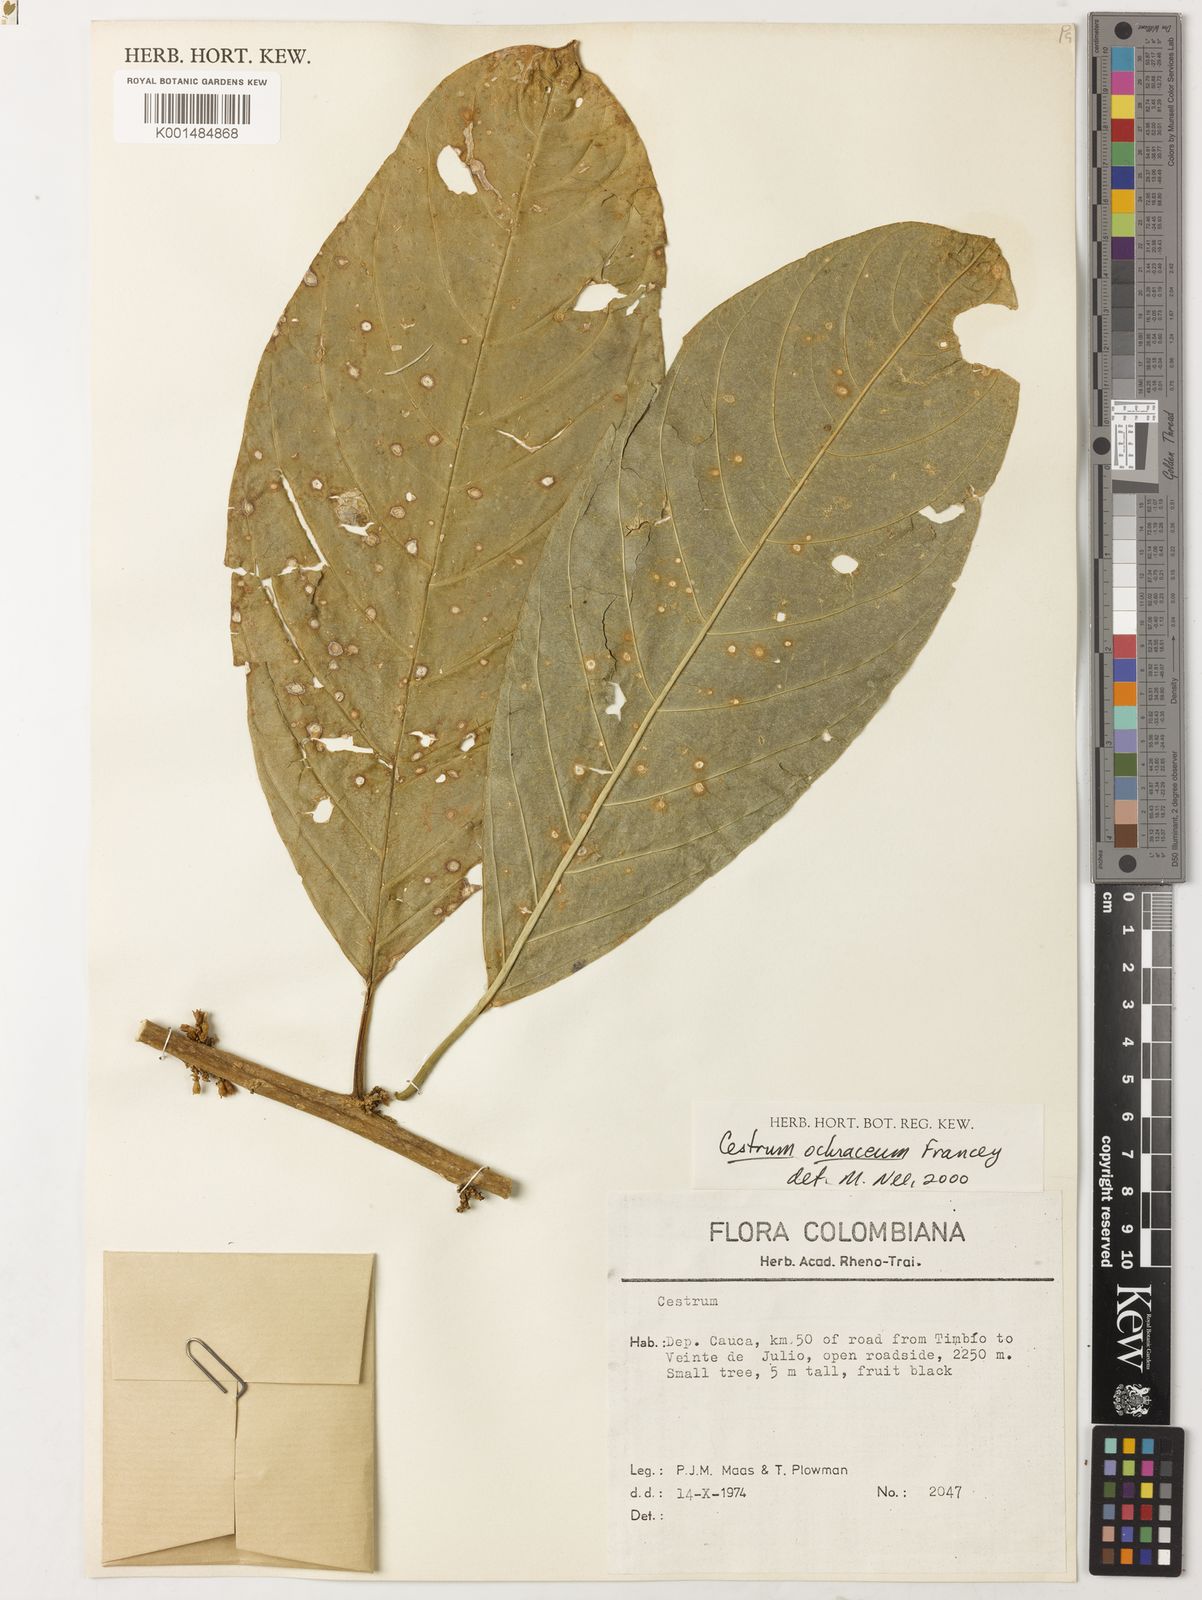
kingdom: Plantae
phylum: Tracheophyta
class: Magnoliopsida
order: Solanales
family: Solanaceae
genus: Cestrum
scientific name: Cestrum ochraceum
